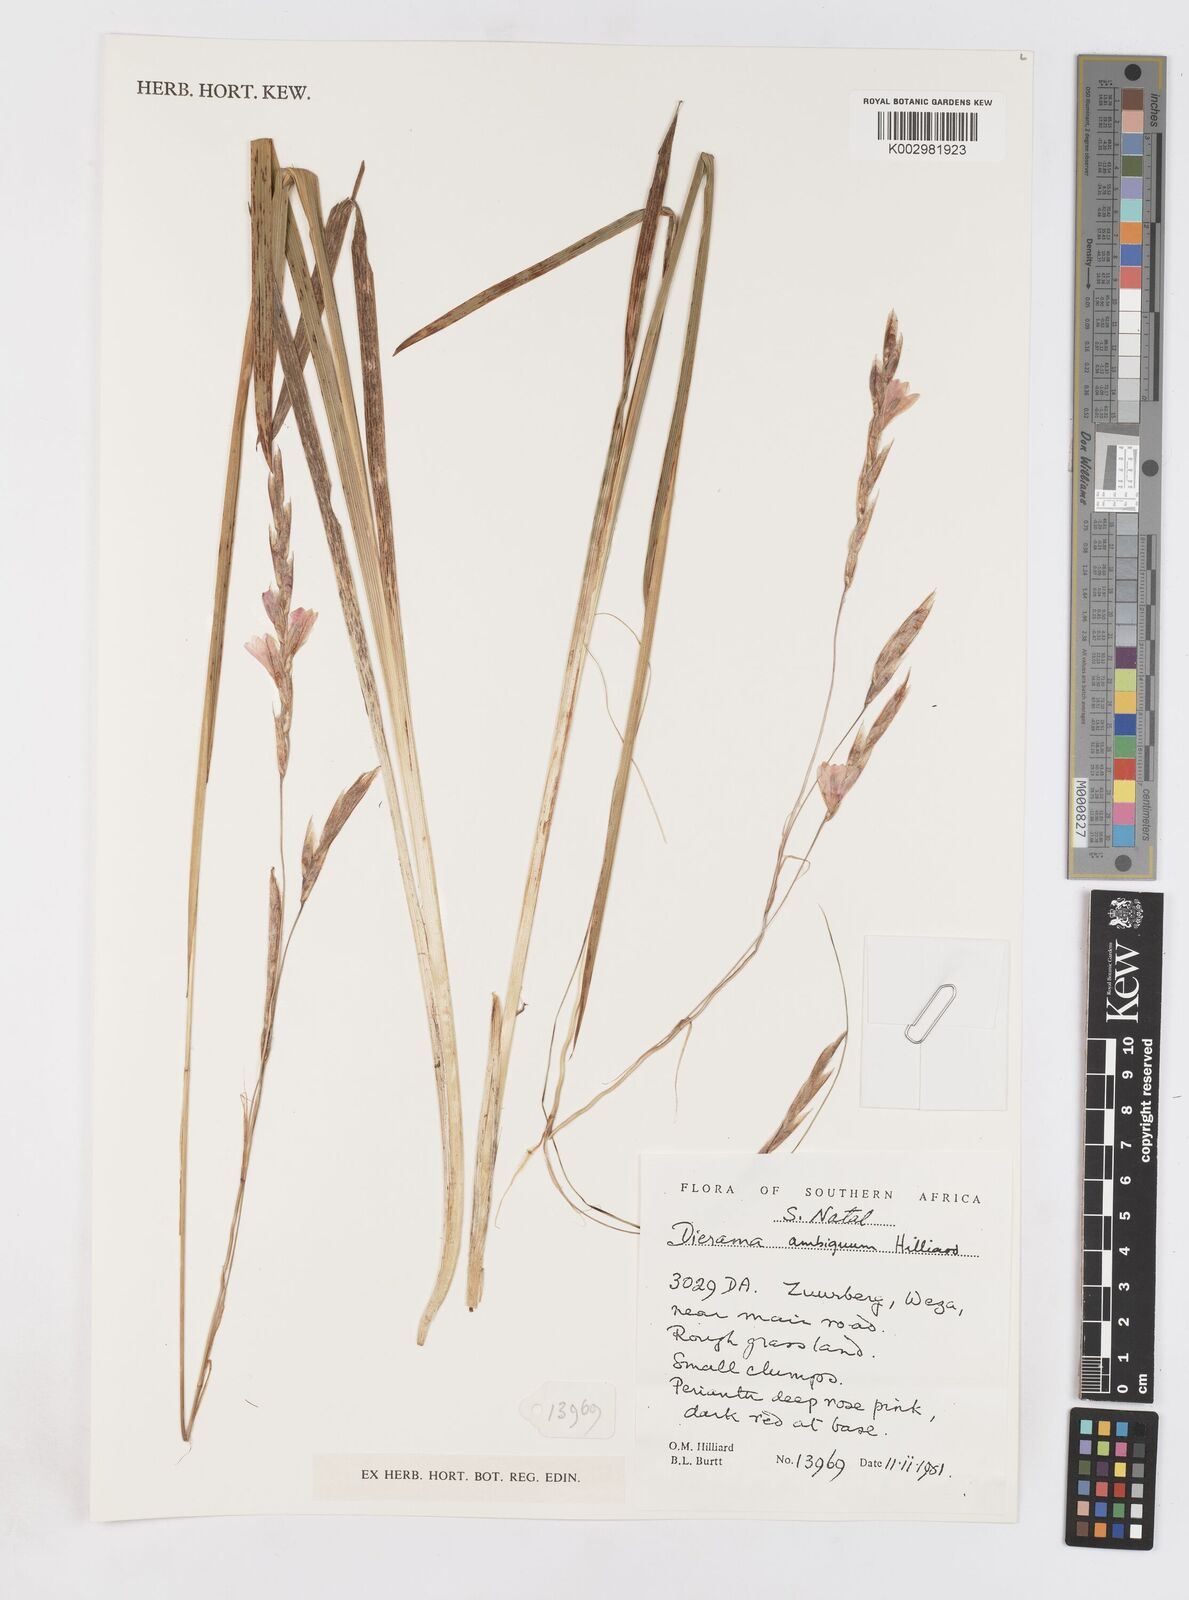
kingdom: Plantae
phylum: Tracheophyta
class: Liliopsida
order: Asparagales
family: Iridaceae
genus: Dierama
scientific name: Dierama ambiguum
